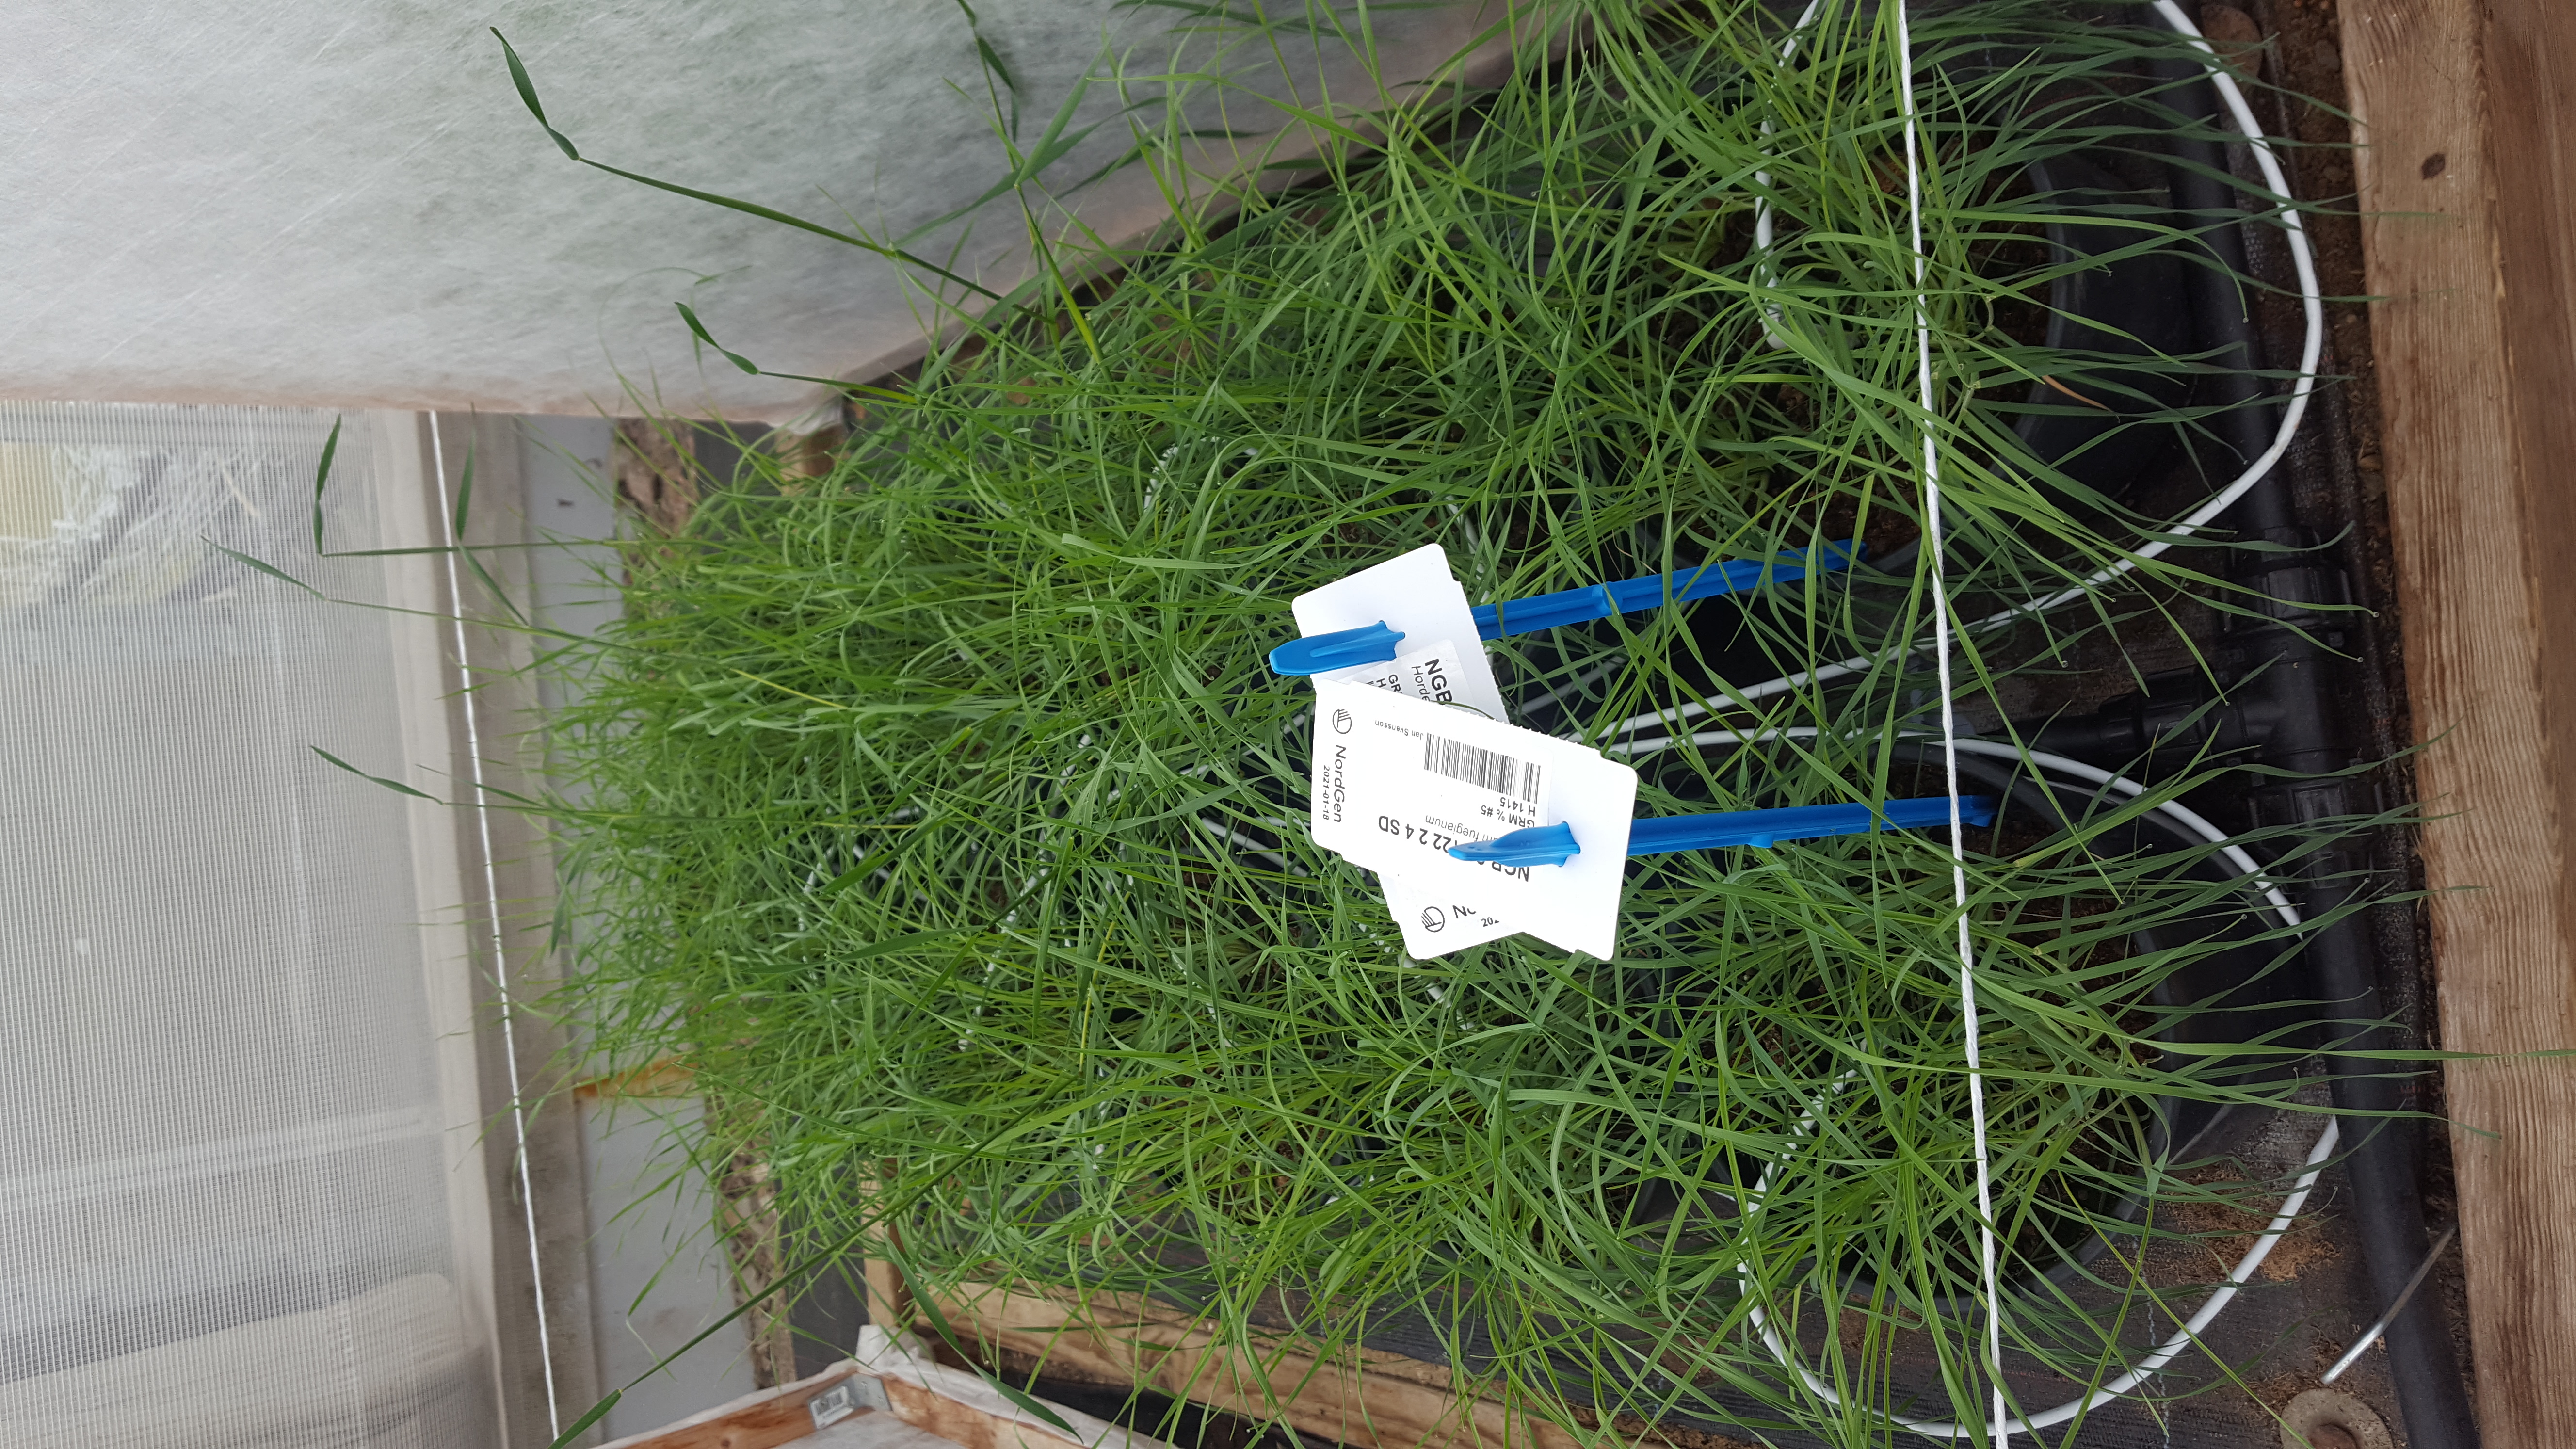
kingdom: Plantae
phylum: Tracheophyta
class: Liliopsida
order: Poales
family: Poaceae
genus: Hordeum
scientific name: Hordeum fuegianum
